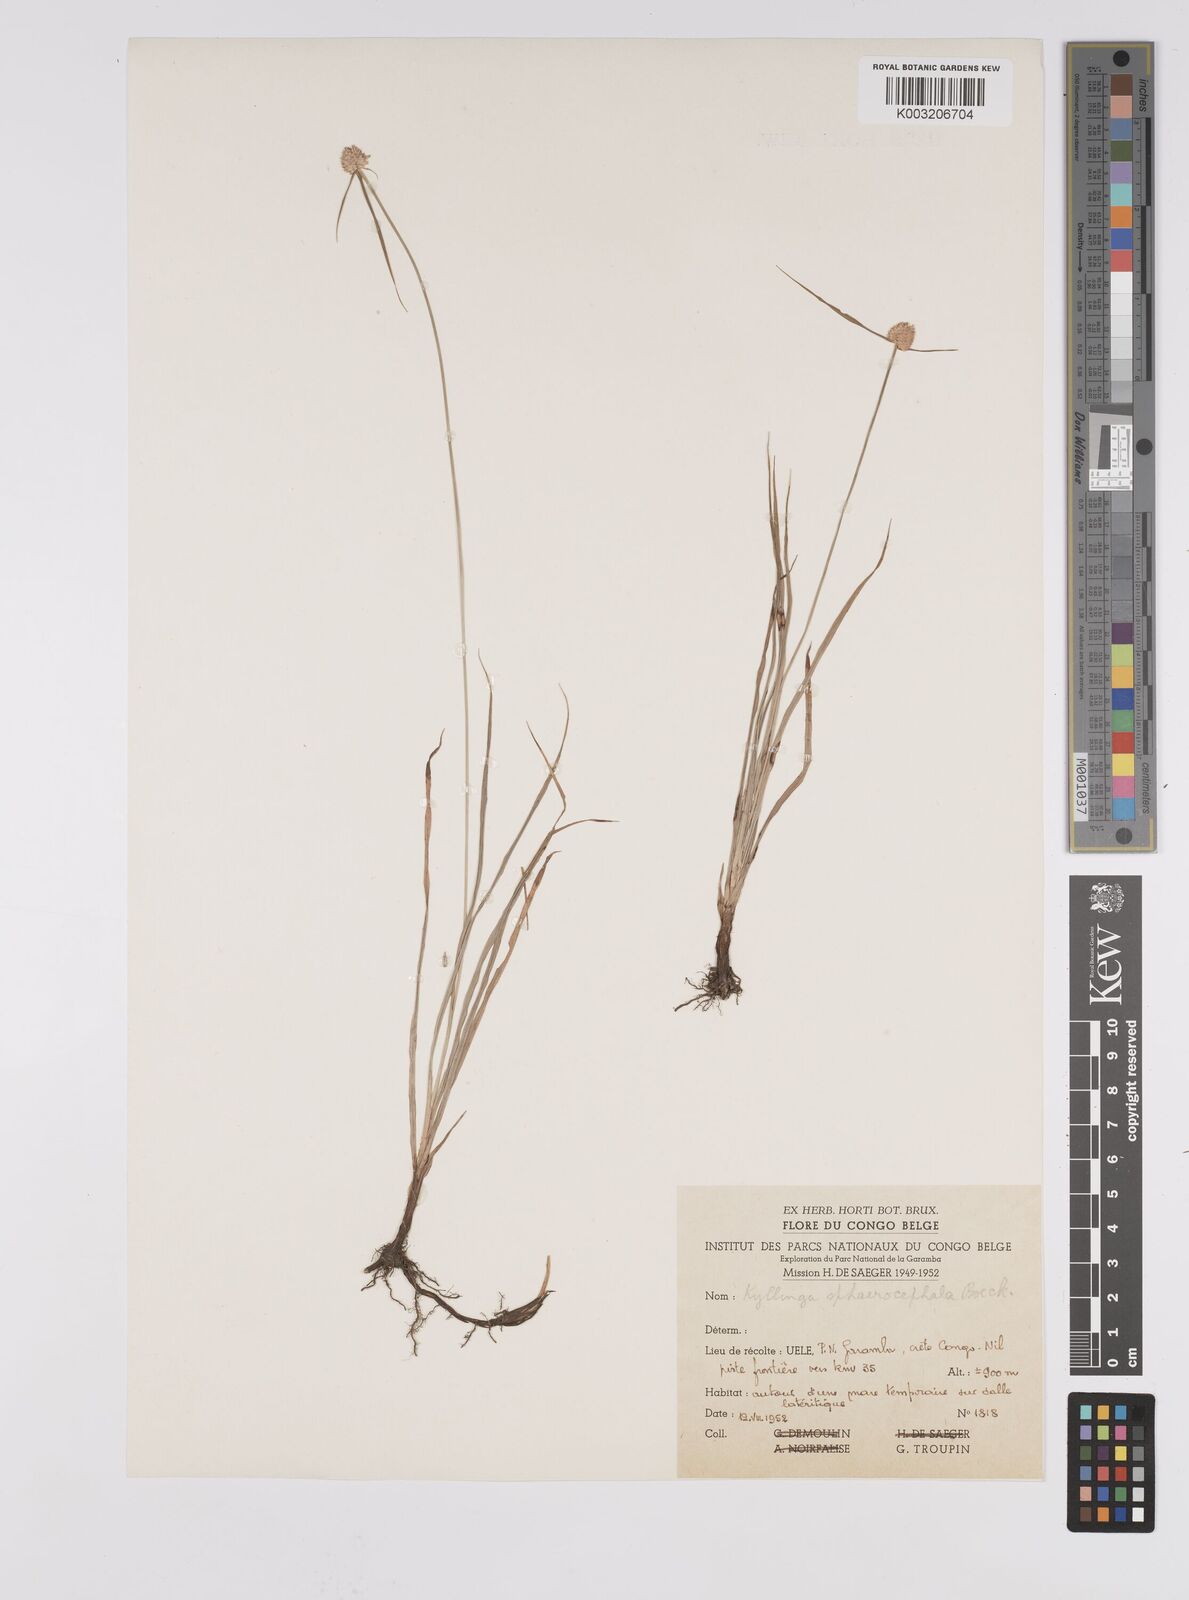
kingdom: Plantae
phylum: Tracheophyta
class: Liliopsida
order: Poales
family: Cyperaceae
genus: Cyperus
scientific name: Cyperus sphaerolepis
